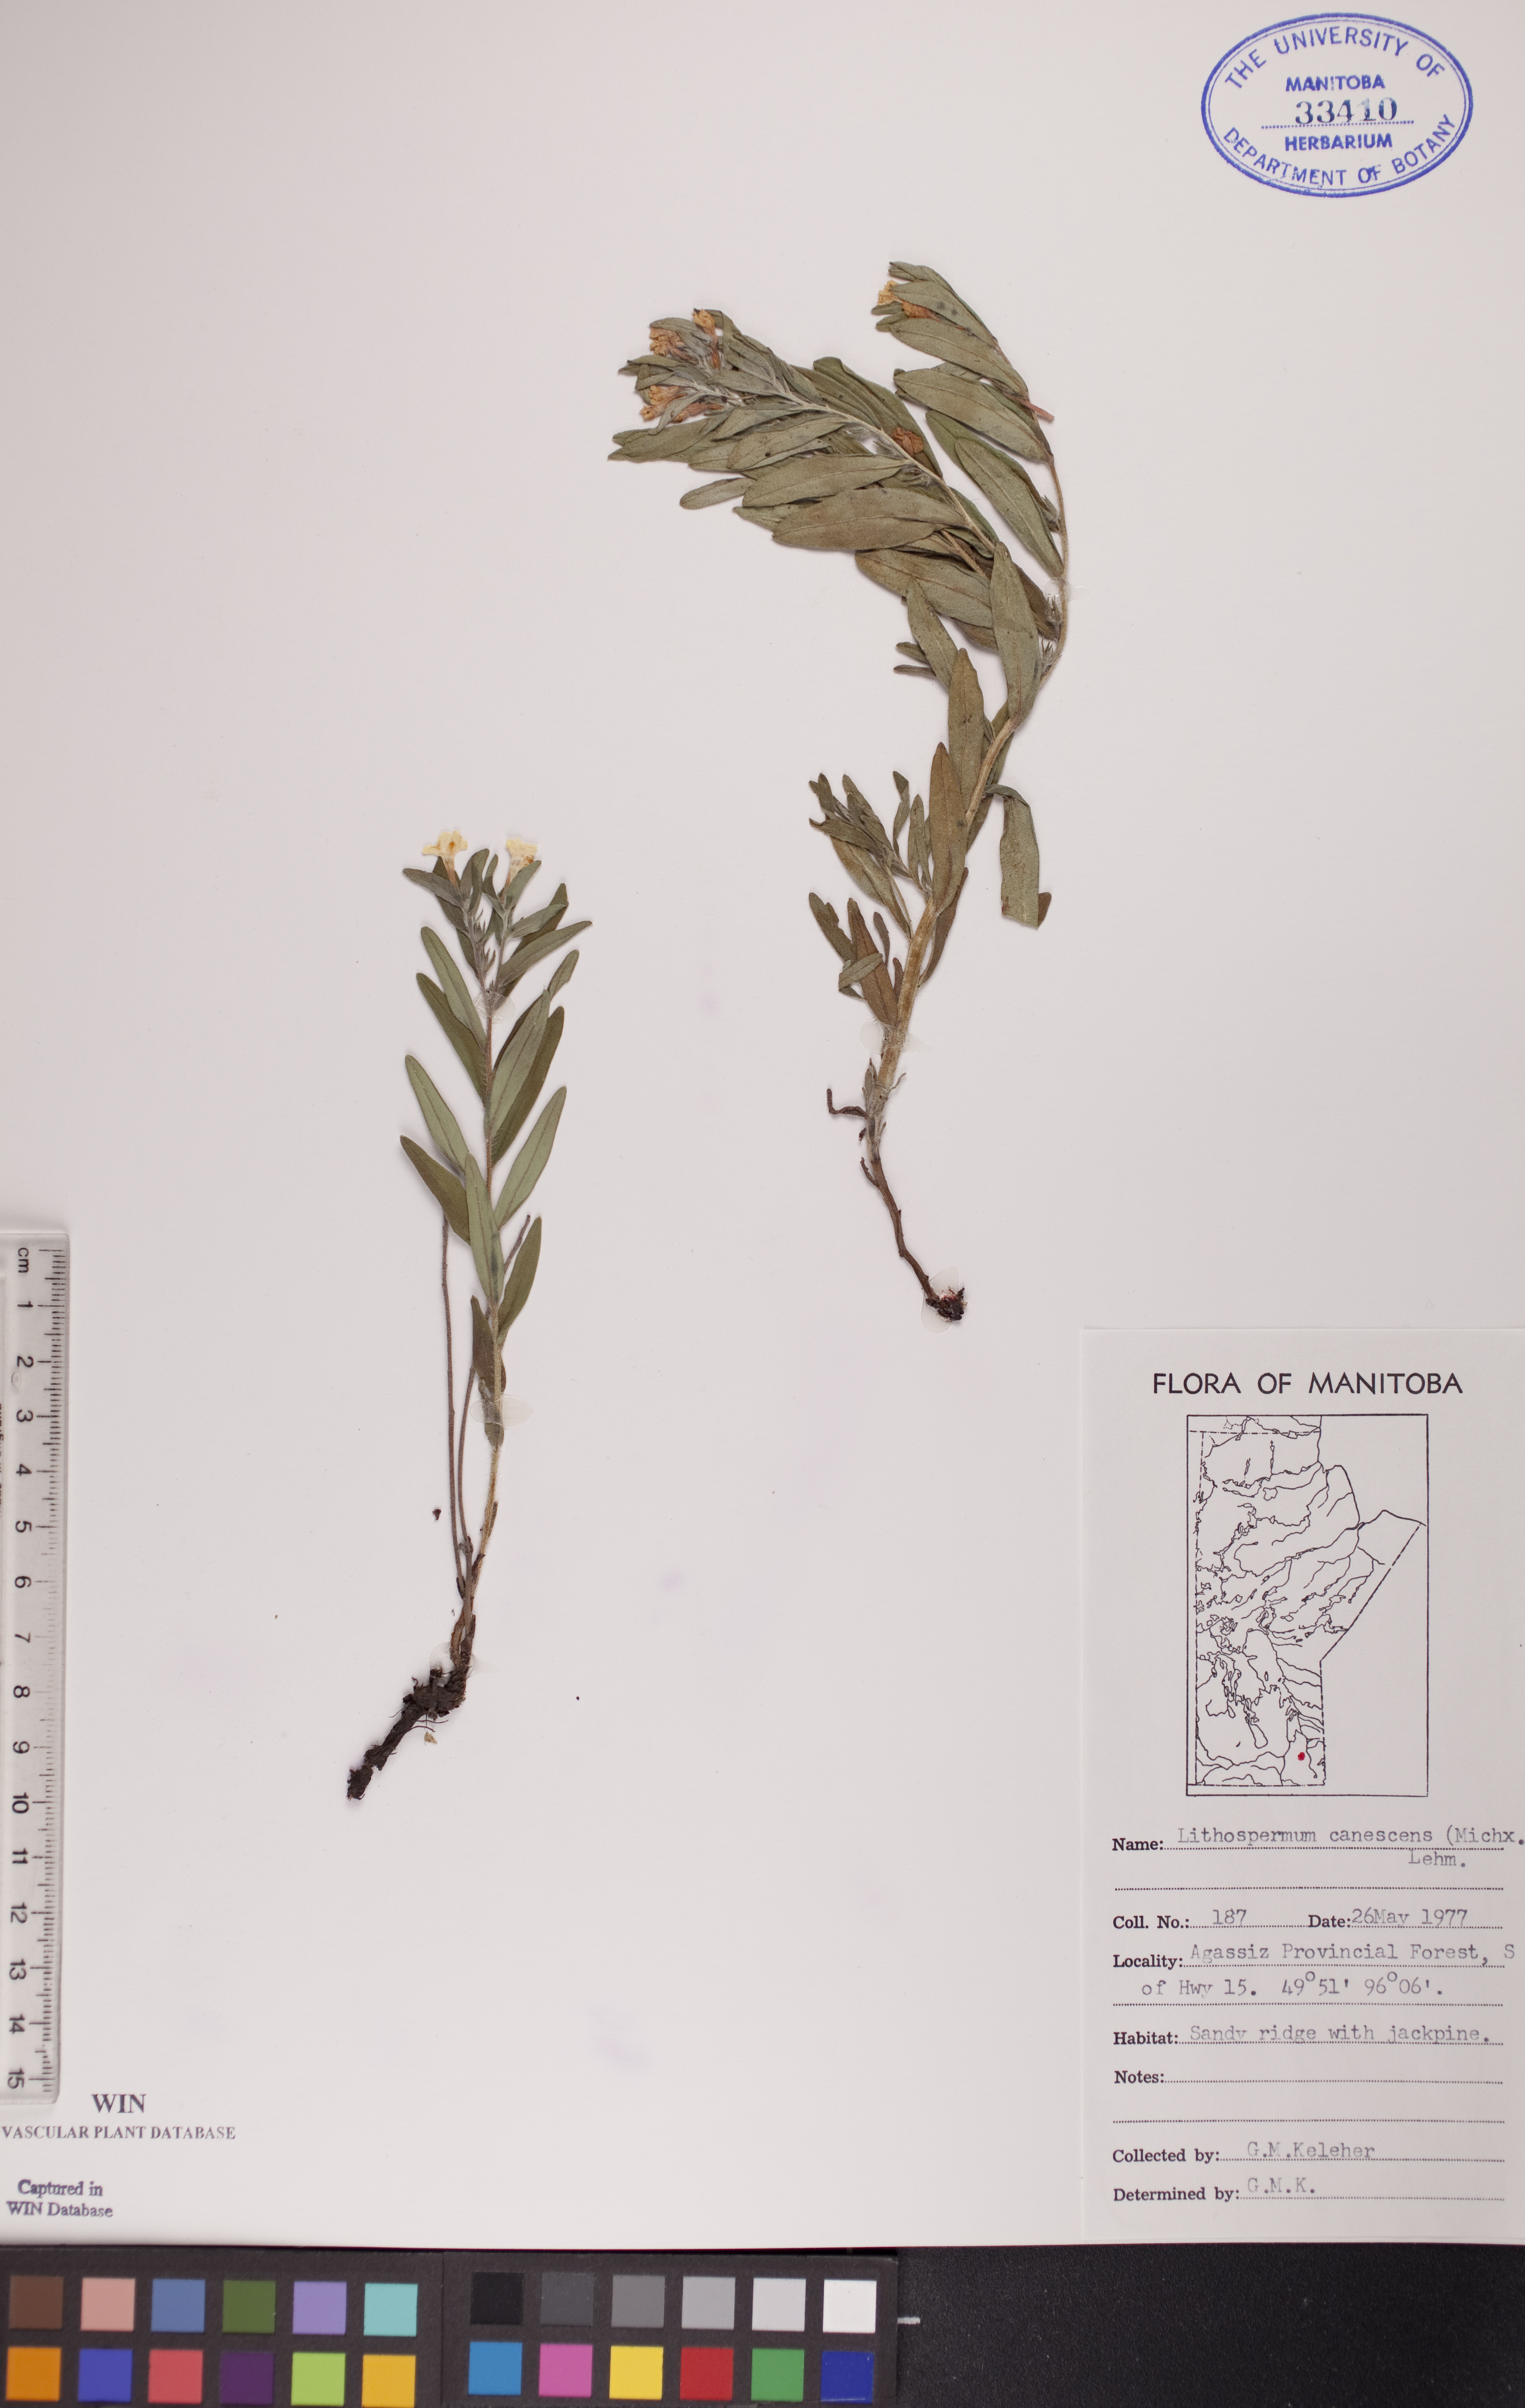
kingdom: Plantae
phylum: Tracheophyta
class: Magnoliopsida
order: Boraginales
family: Boraginaceae
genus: Lithospermum
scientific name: Lithospermum canescens
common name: Hoary puccoon
